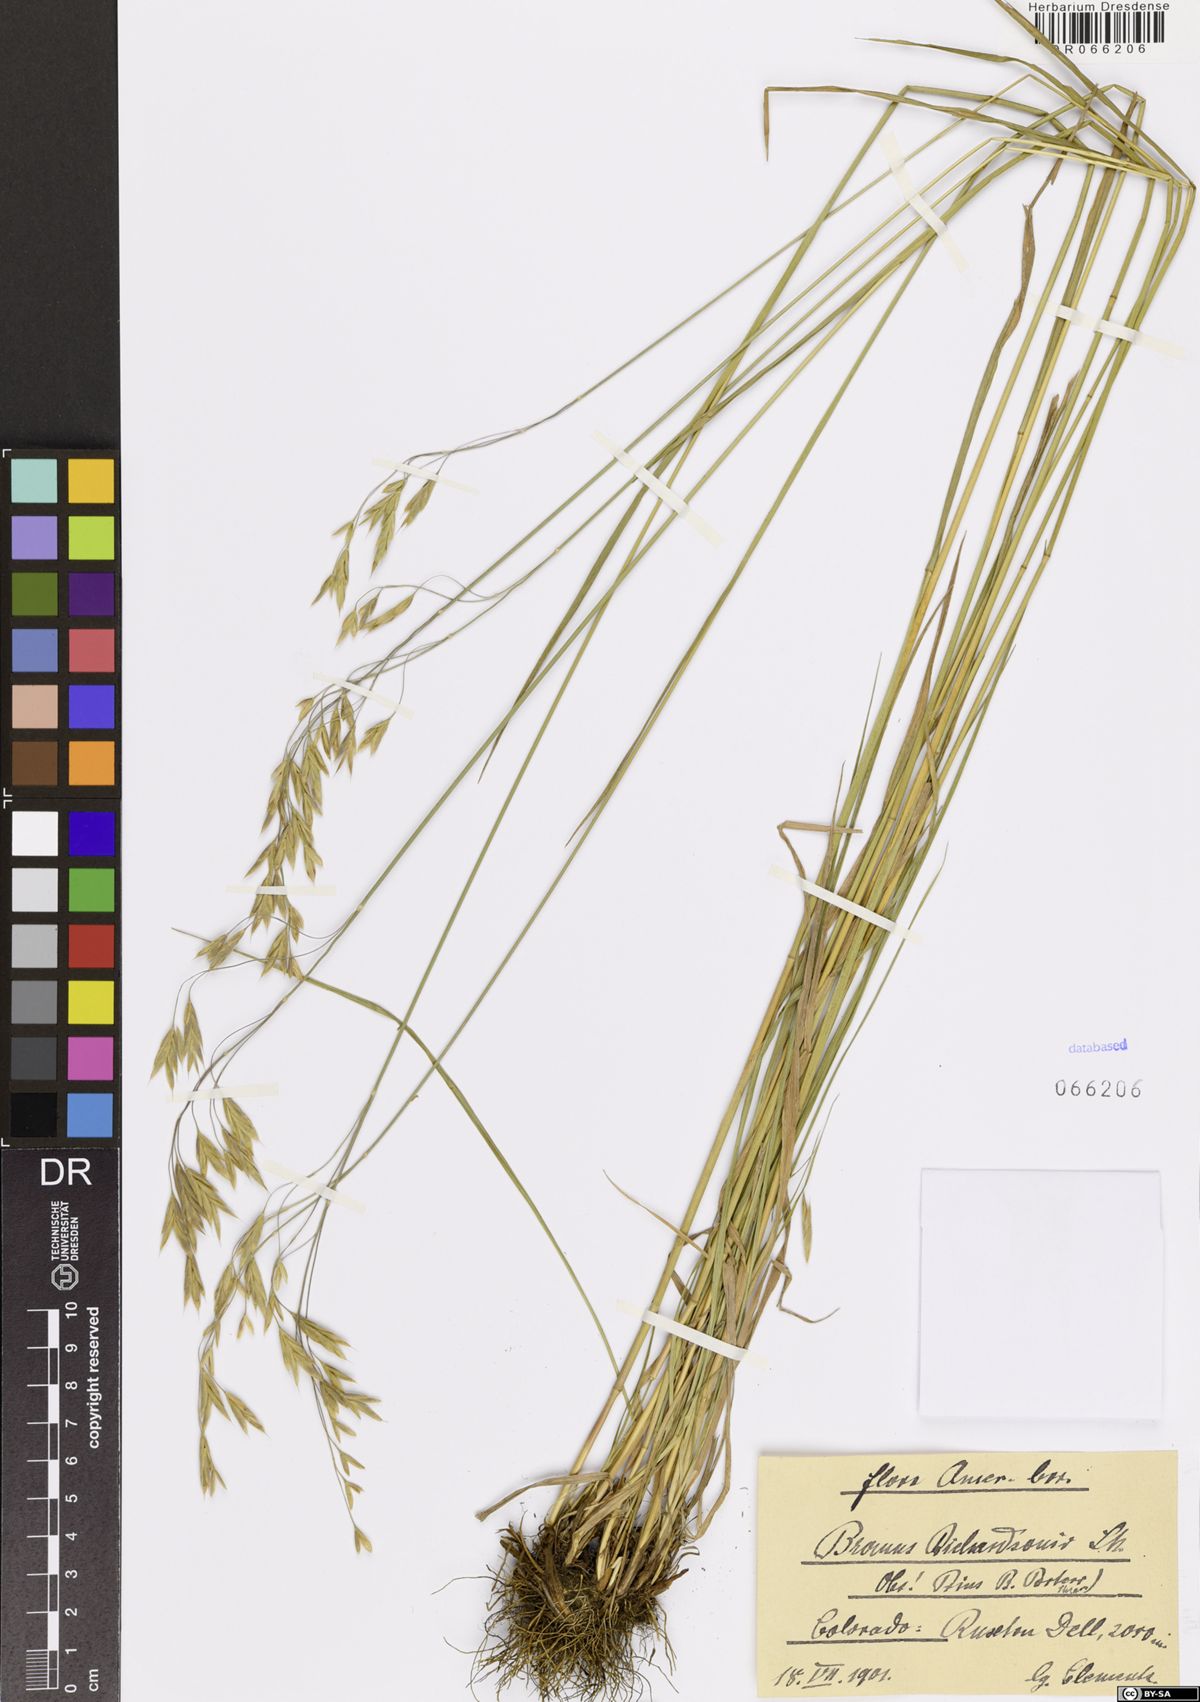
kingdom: Plantae
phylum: Tracheophyta
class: Liliopsida
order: Poales
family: Poaceae
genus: Bromus
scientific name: Bromus richardsonii
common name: Richardson's brome
